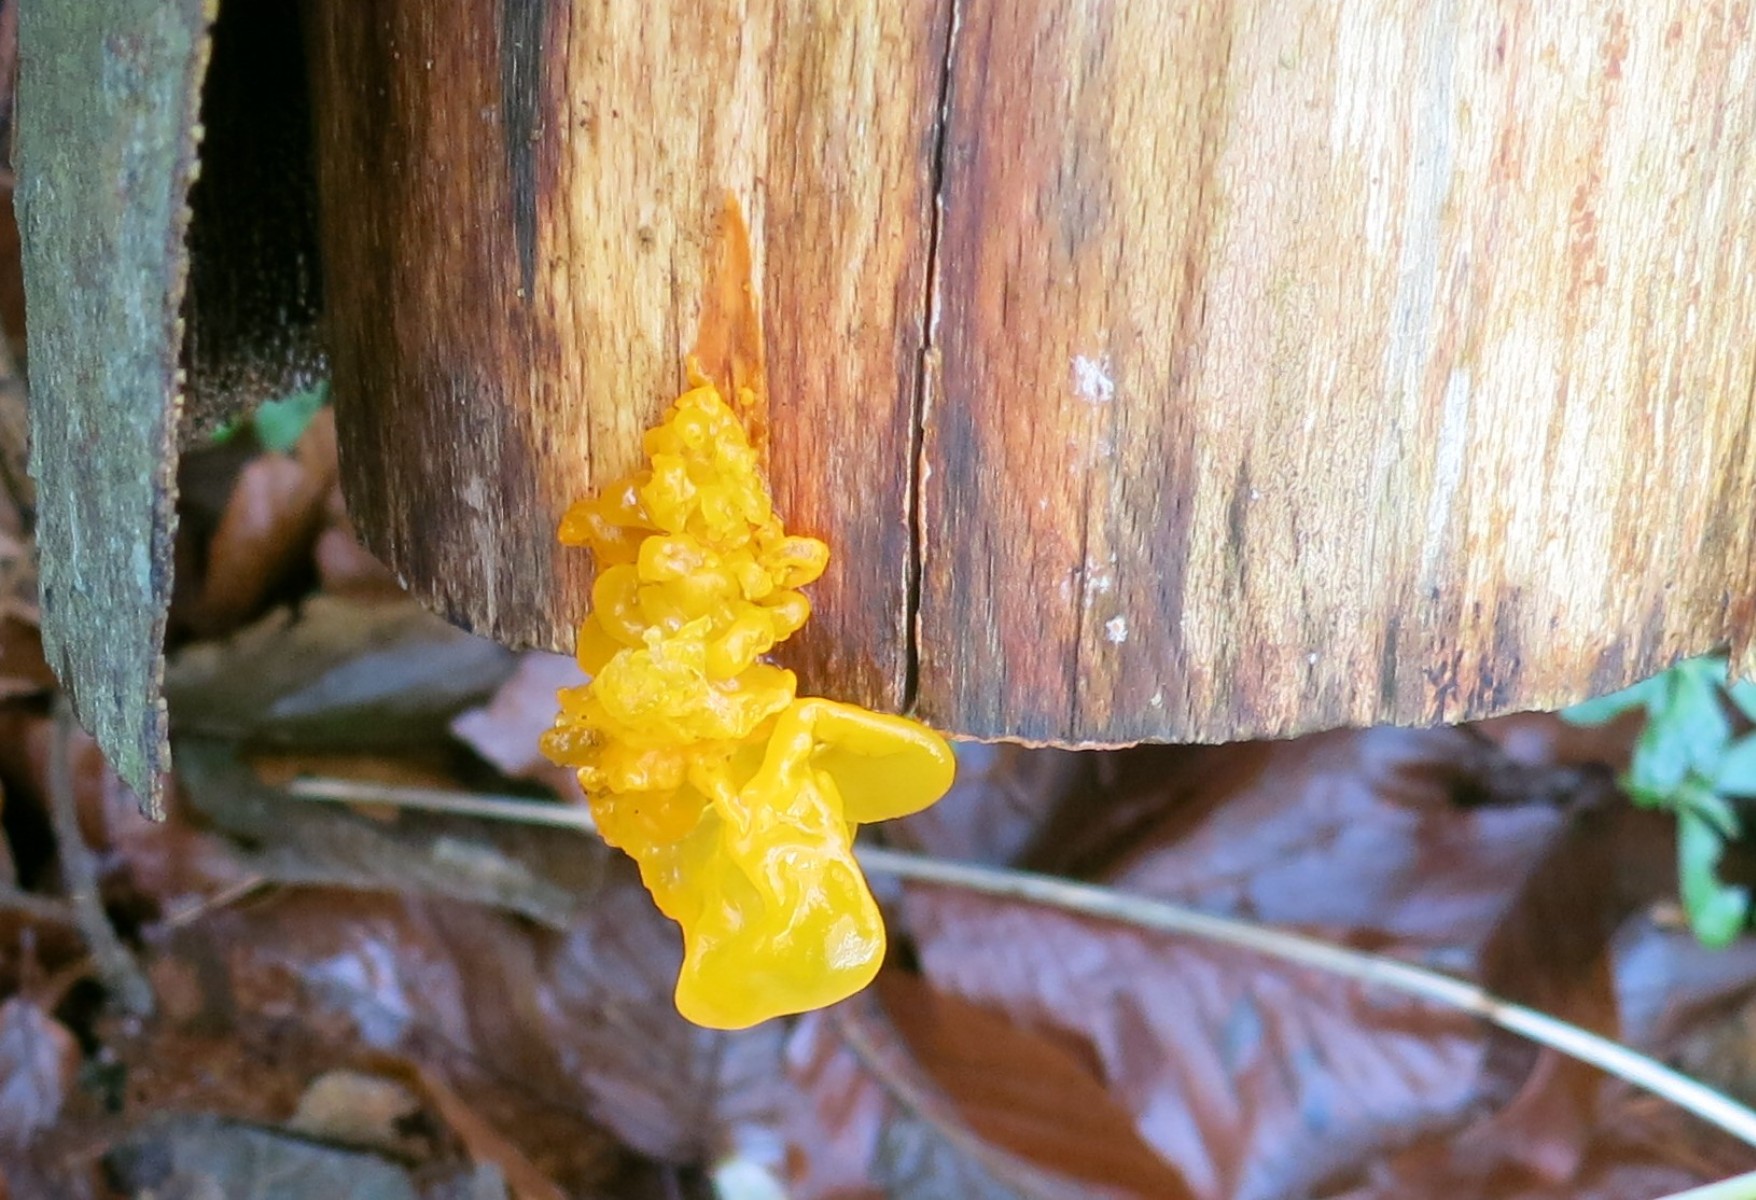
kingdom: Fungi
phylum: Basidiomycota
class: Tremellomycetes
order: Tremellales
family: Tremellaceae
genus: Tremella
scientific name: Tremella mesenterica
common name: gul bævresvamp
